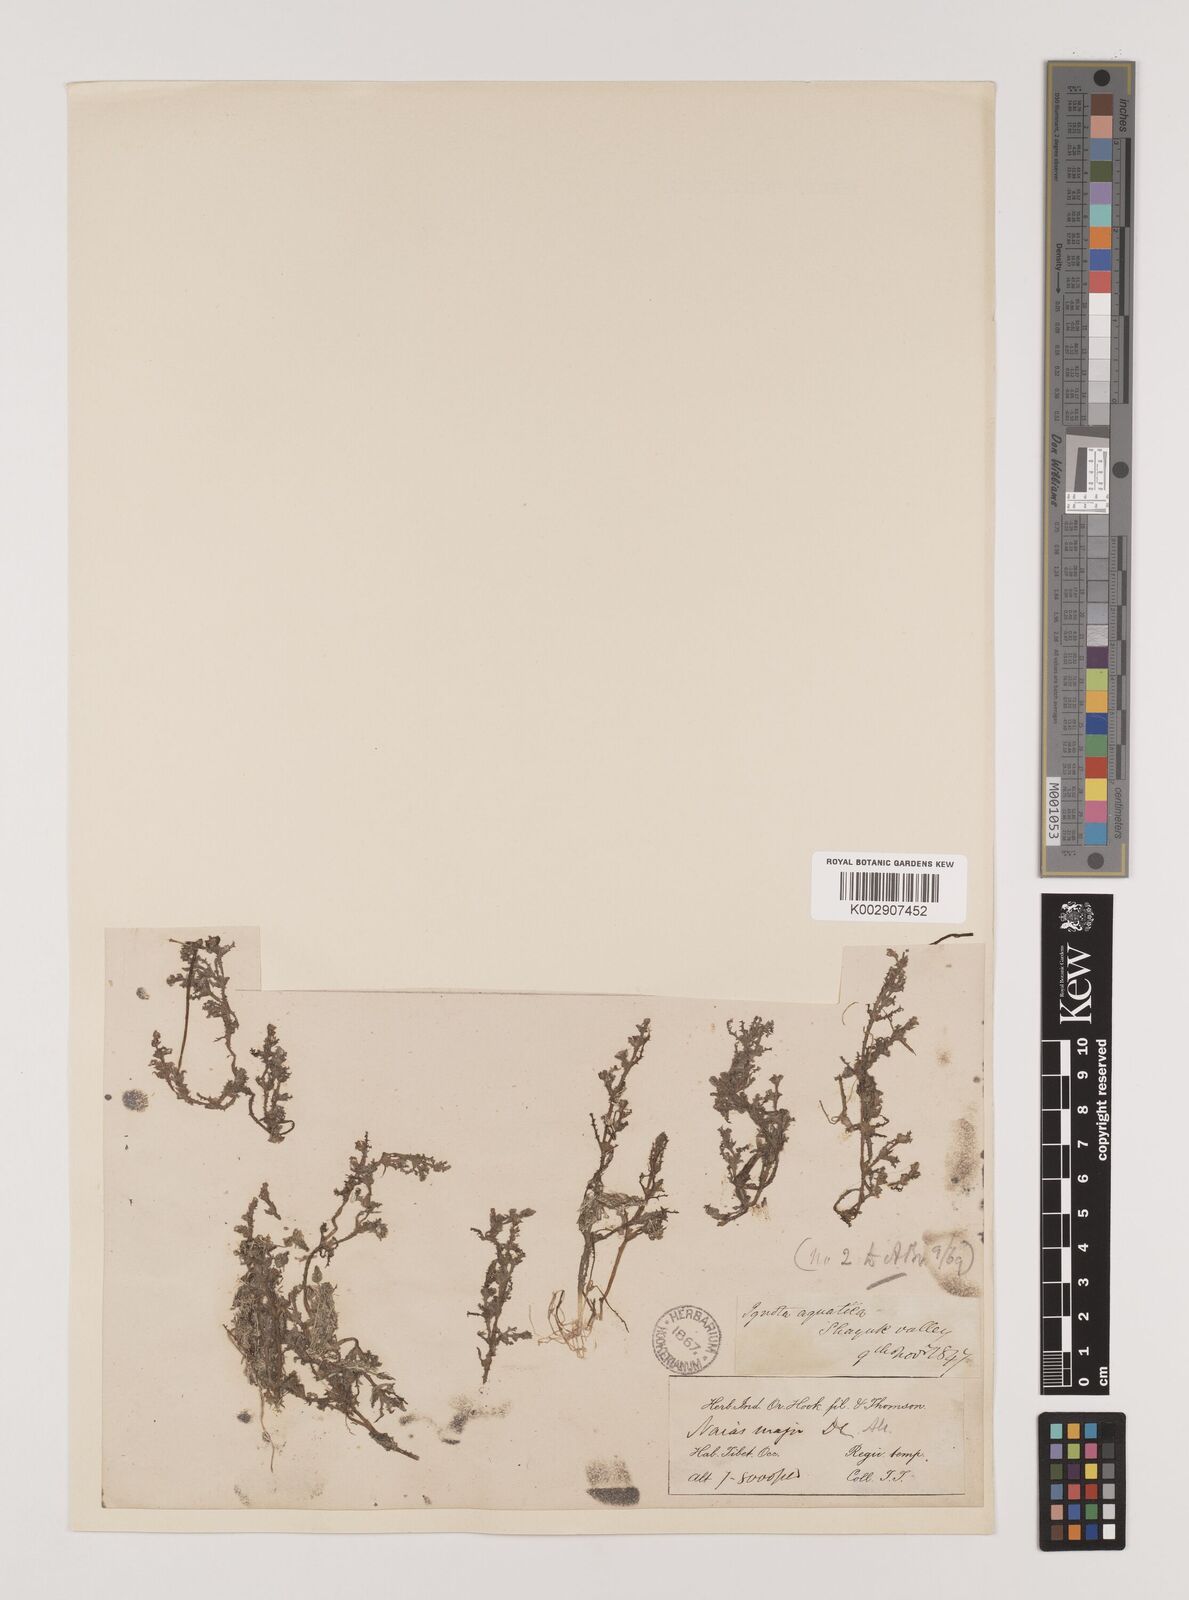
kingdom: Plantae
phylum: Tracheophyta
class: Liliopsida
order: Alismatales
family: Hydrocharitaceae
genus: Najas
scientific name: Najas marina
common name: Holly-leaved naiad
